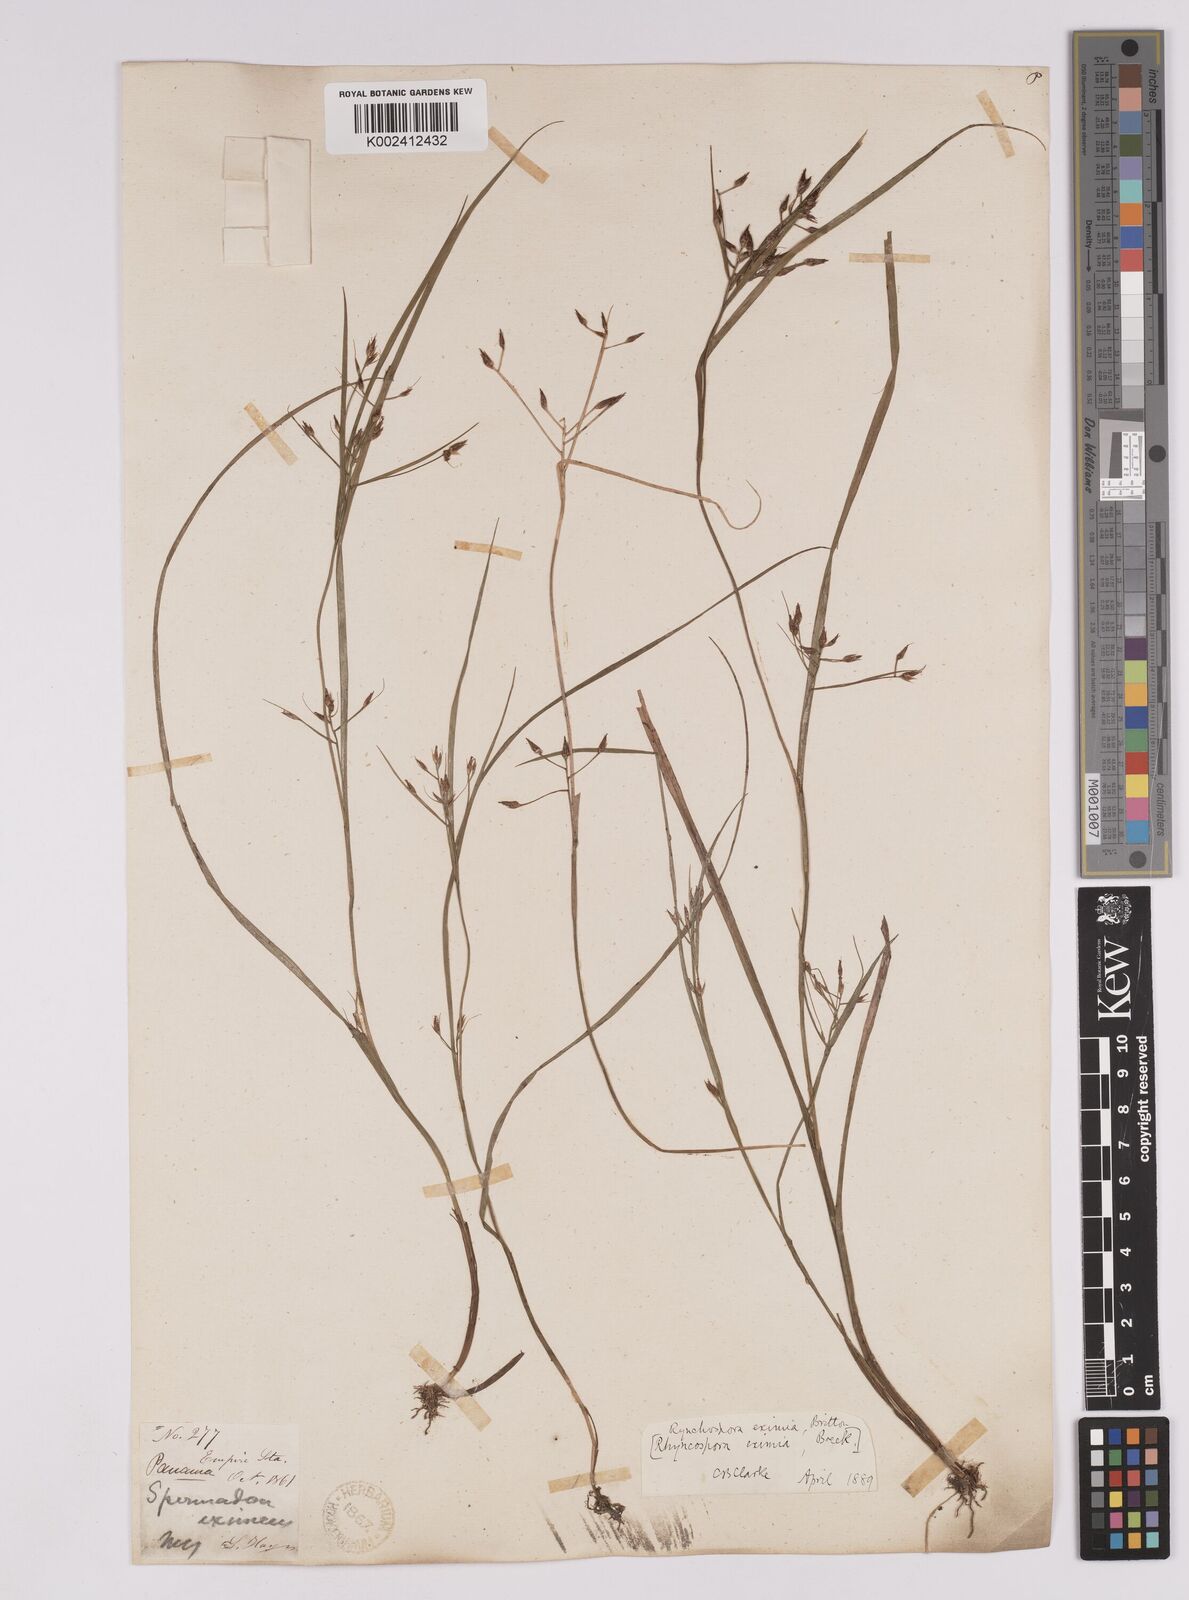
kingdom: Plantae
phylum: Tracheophyta
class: Liliopsida
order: Poales
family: Cyperaceae
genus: Rhynchospora
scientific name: Rhynchospora eximia
